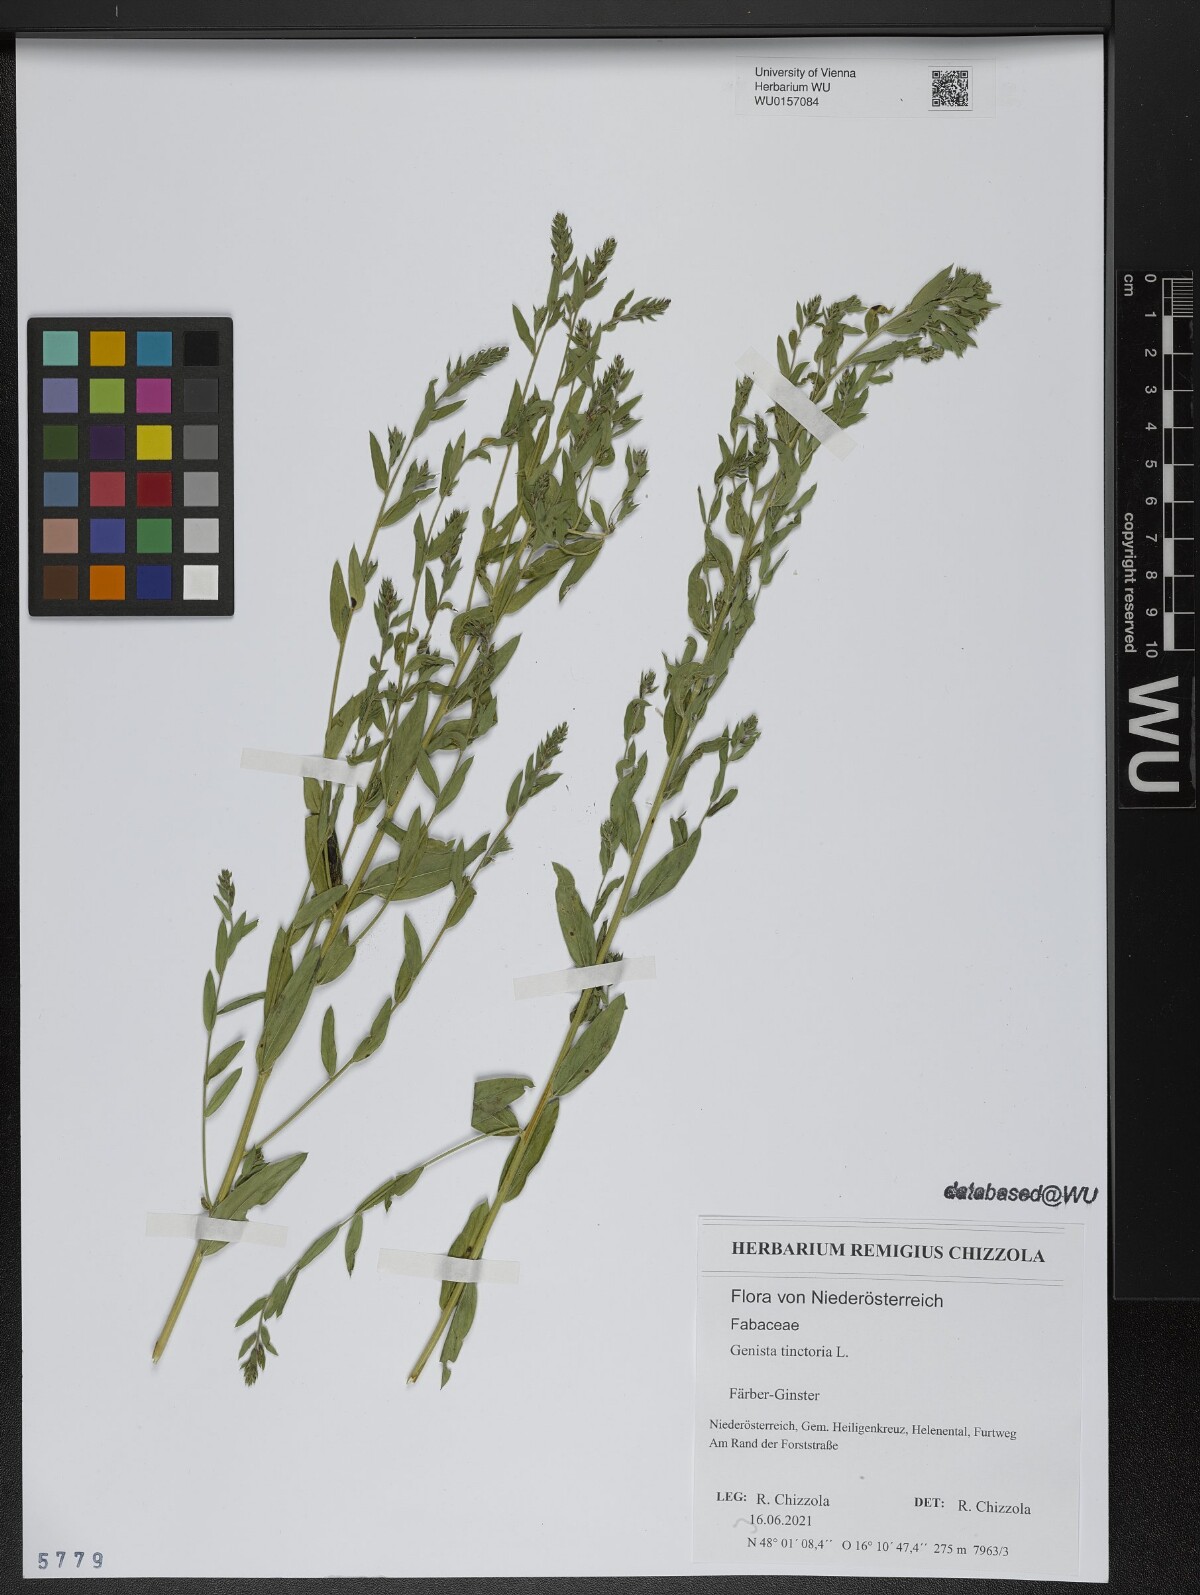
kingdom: Plantae
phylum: Tracheophyta
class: Magnoliopsida
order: Fabales
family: Fabaceae
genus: Genista
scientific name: Genista tinctoria
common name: Dyer's greenweed
